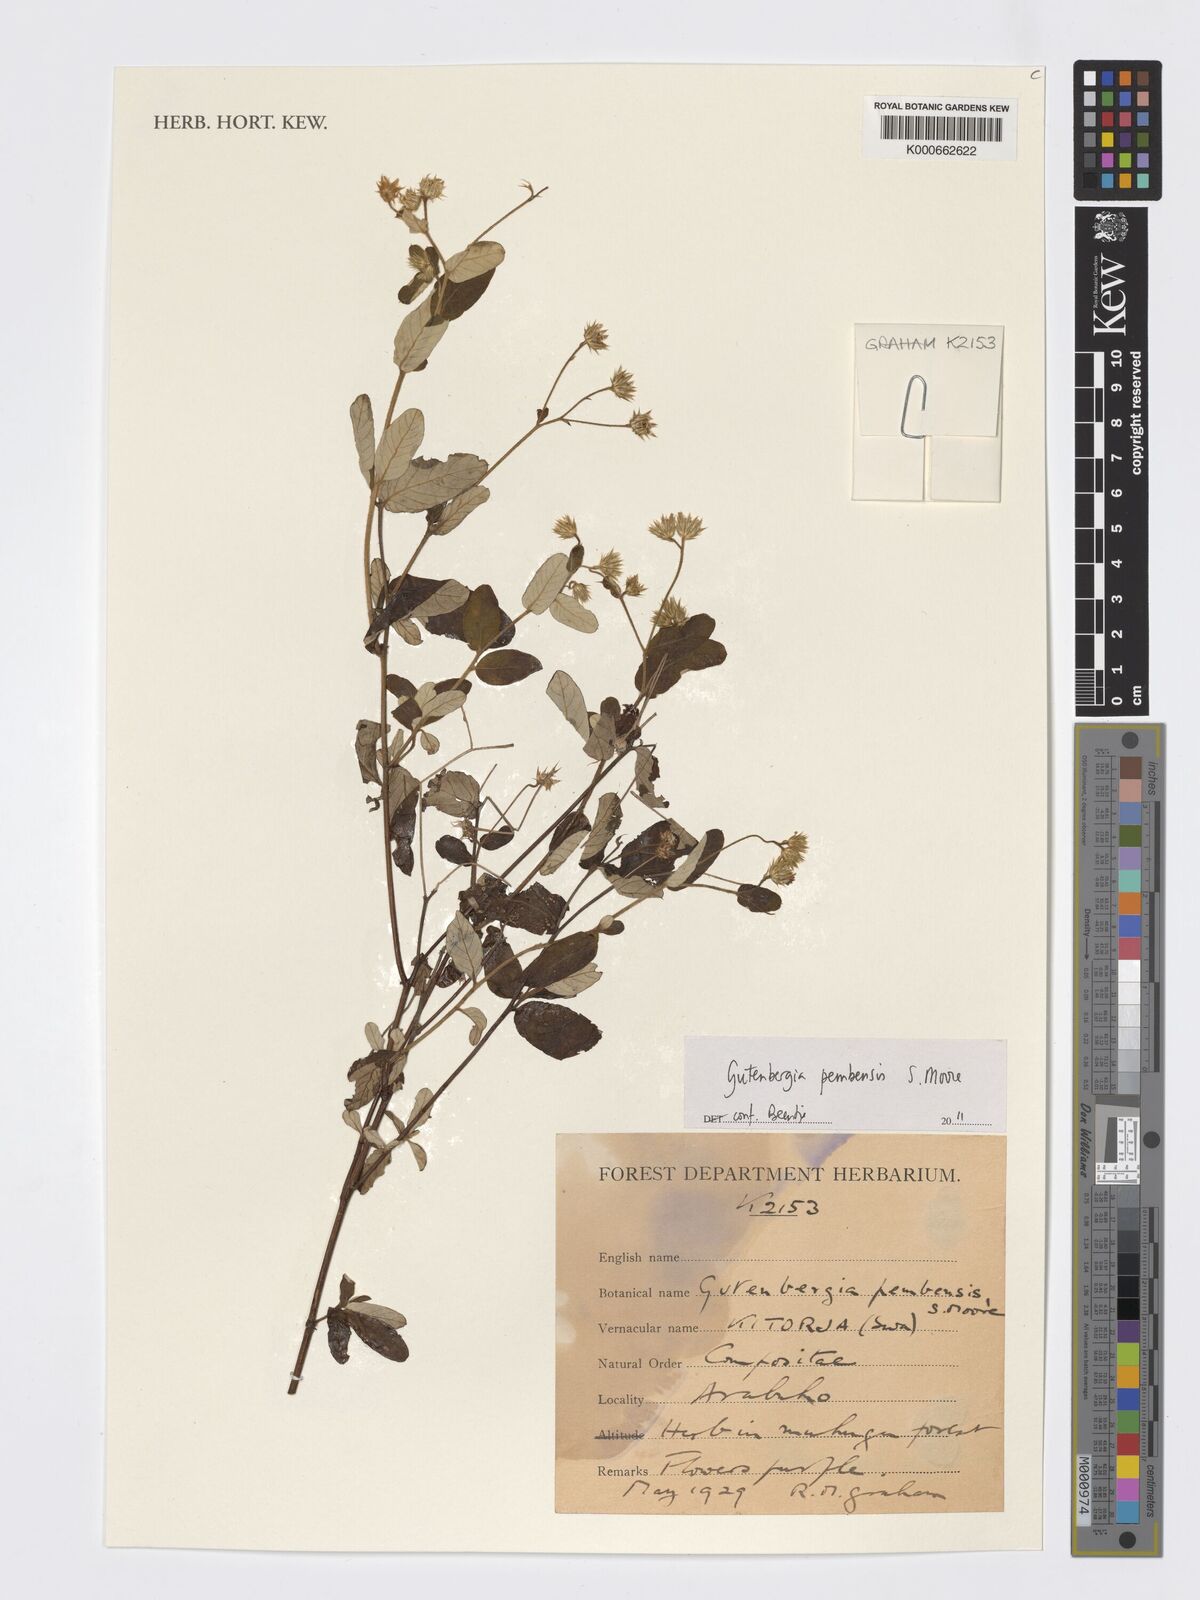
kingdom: Plantae
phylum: Tracheophyta
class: Magnoliopsida
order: Asterales
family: Asteraceae
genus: Gutenbergia
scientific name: Gutenbergia pembensis
